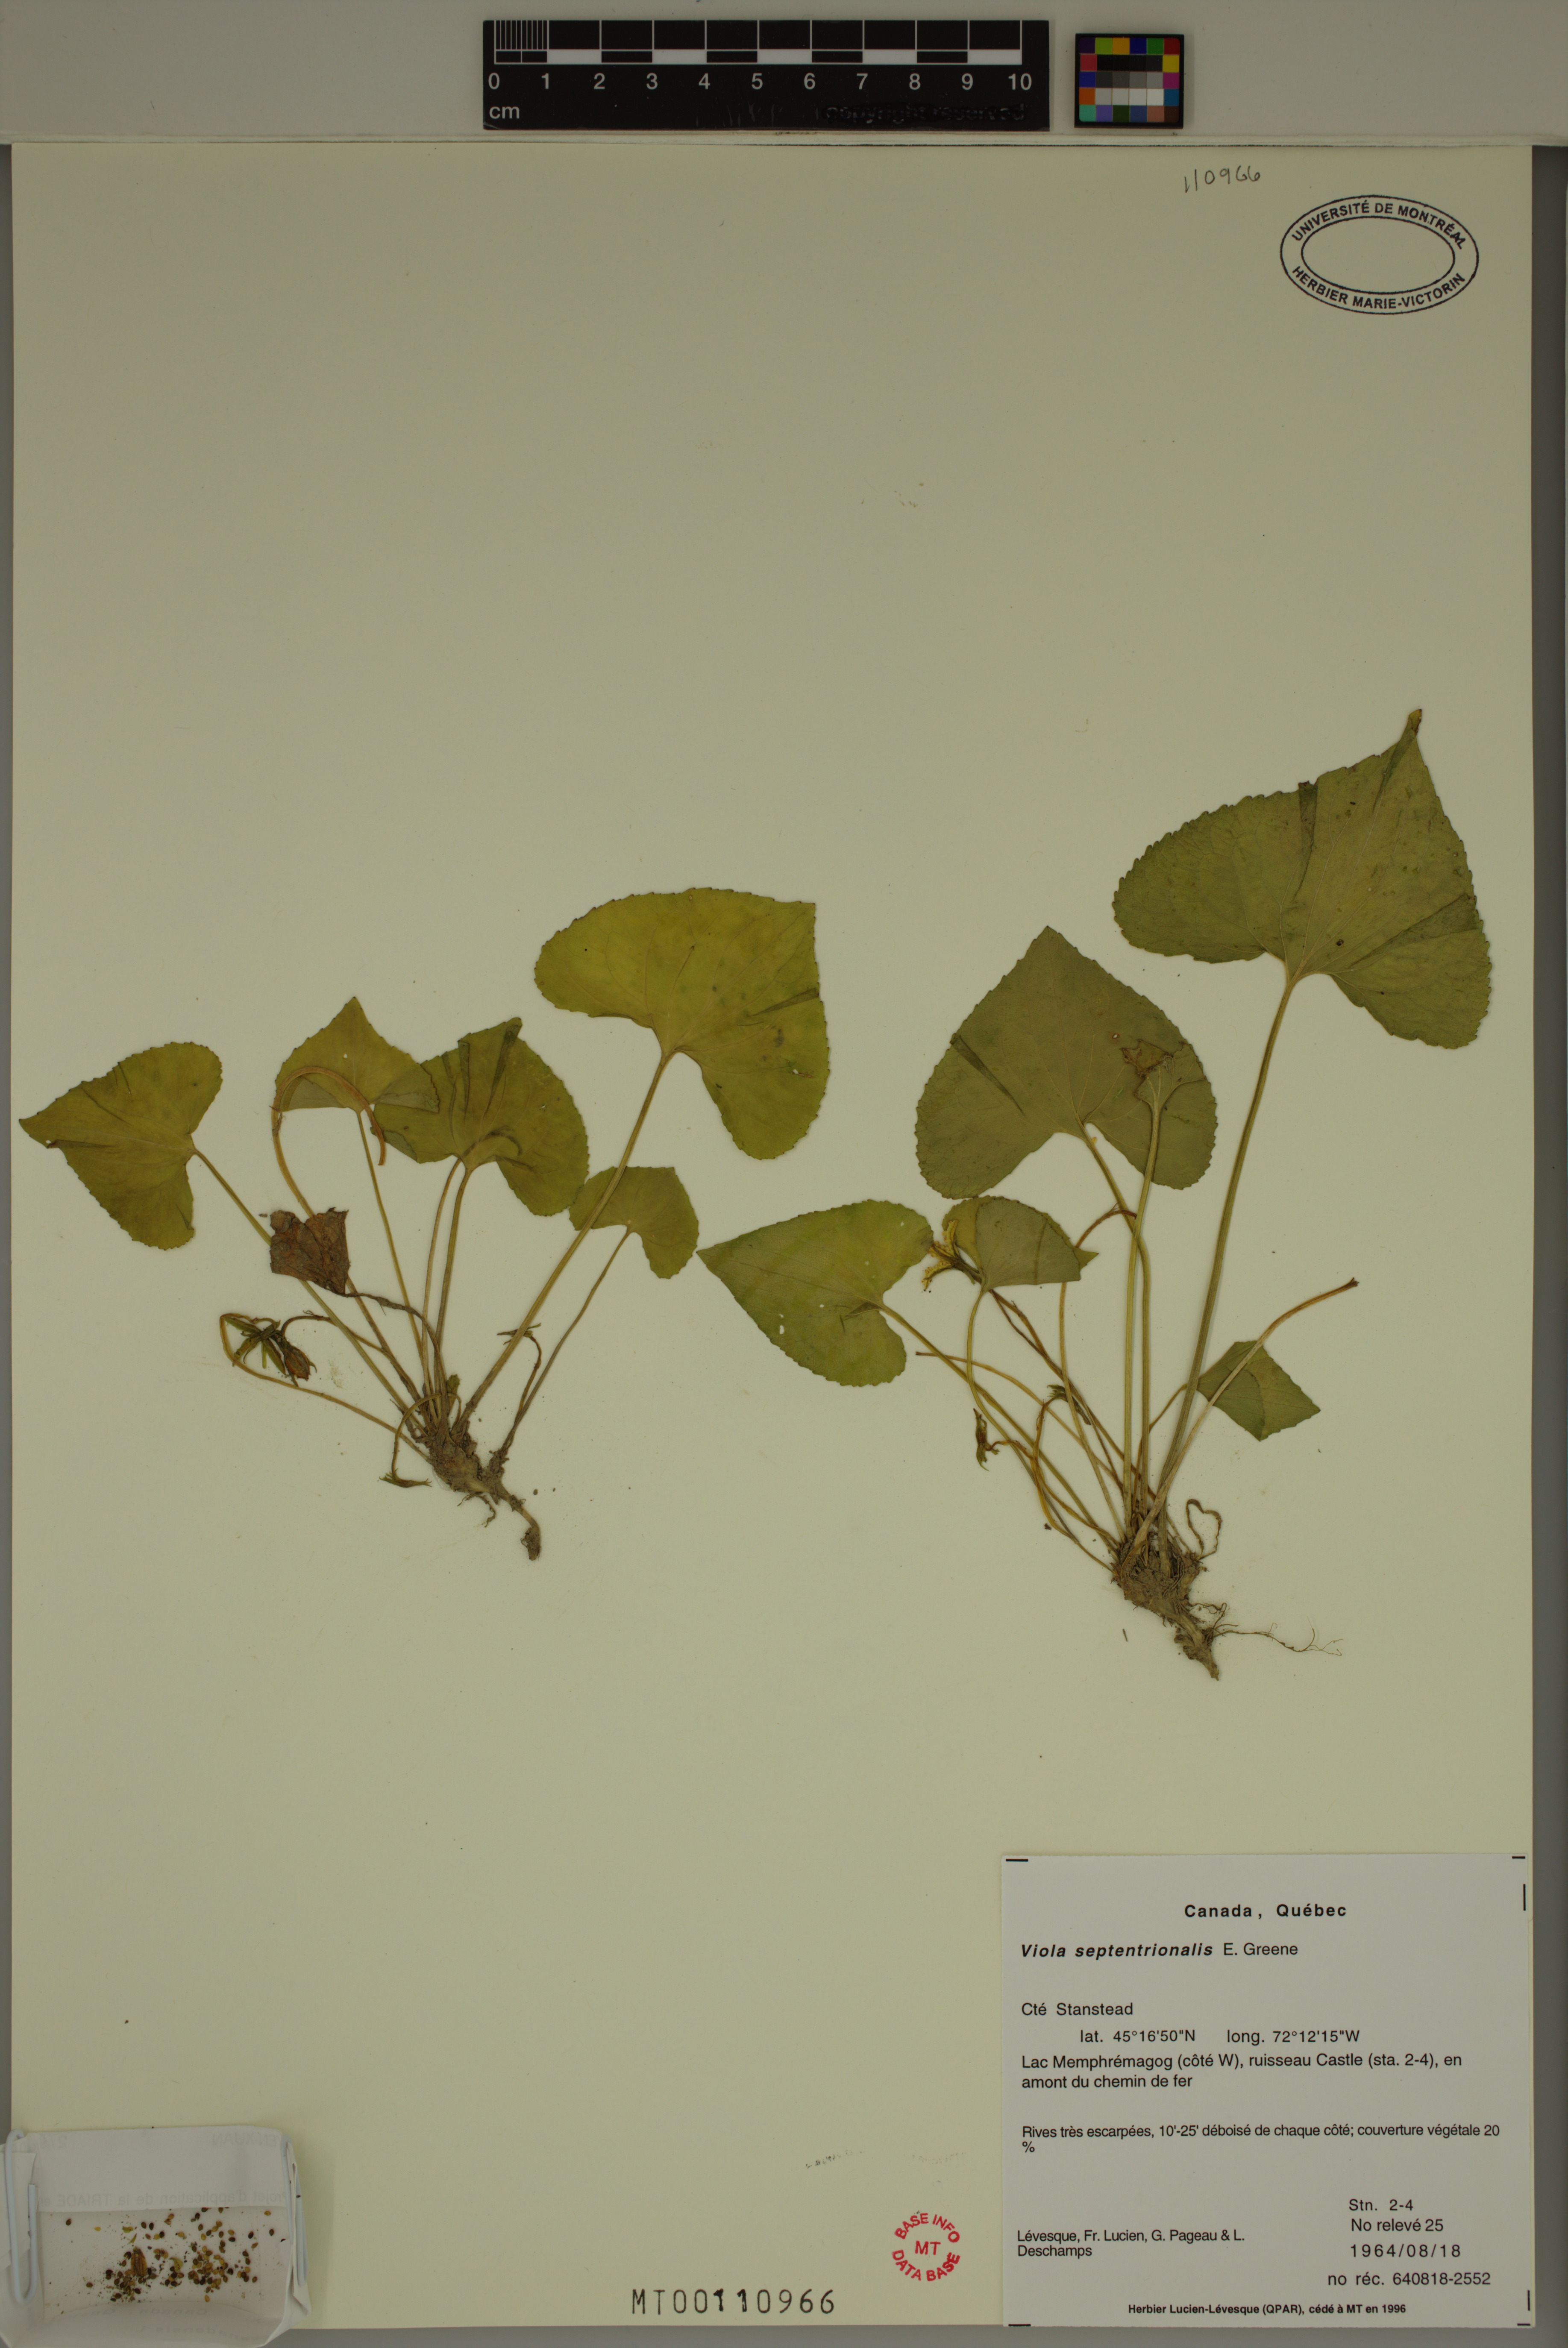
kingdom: Plantae
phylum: Tracheophyta
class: Magnoliopsida
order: Malpighiales
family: Violaceae
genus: Viola
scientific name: Viola sororia
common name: Dooryard violet
